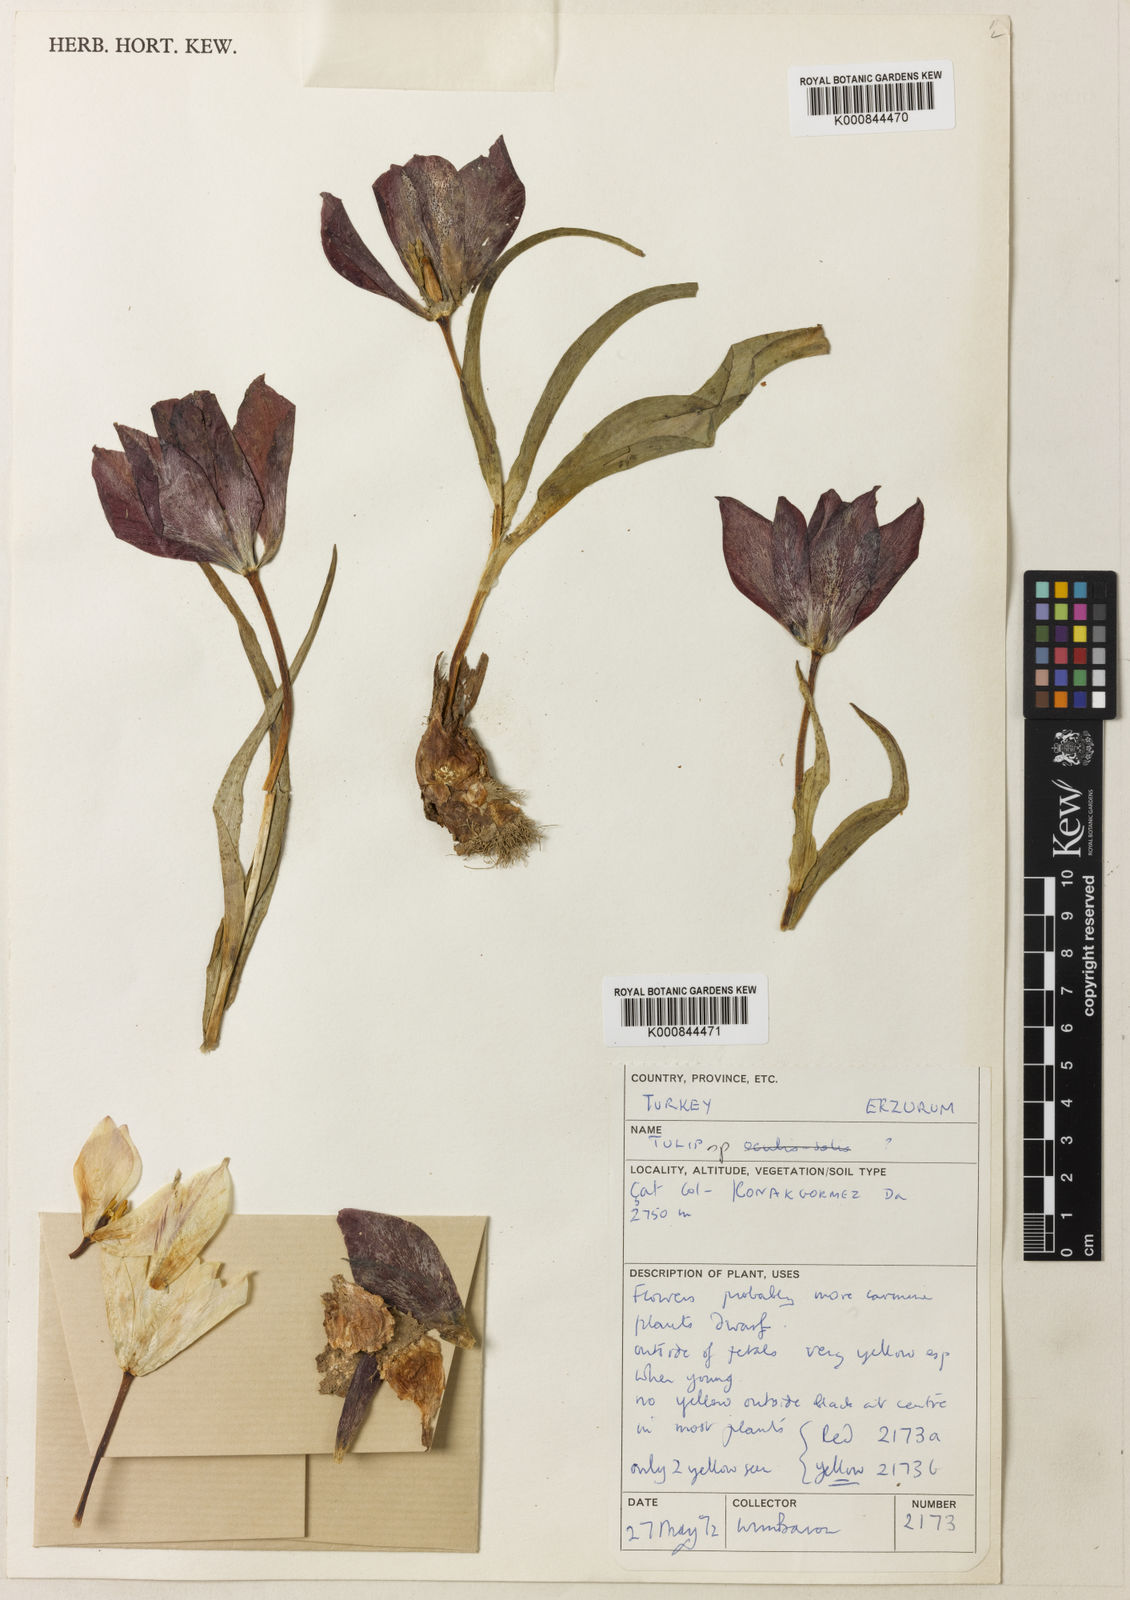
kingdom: Plantae
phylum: Tracheophyta
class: Liliopsida
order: Liliales
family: Liliaceae
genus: Tulipa
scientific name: Tulipa armena
